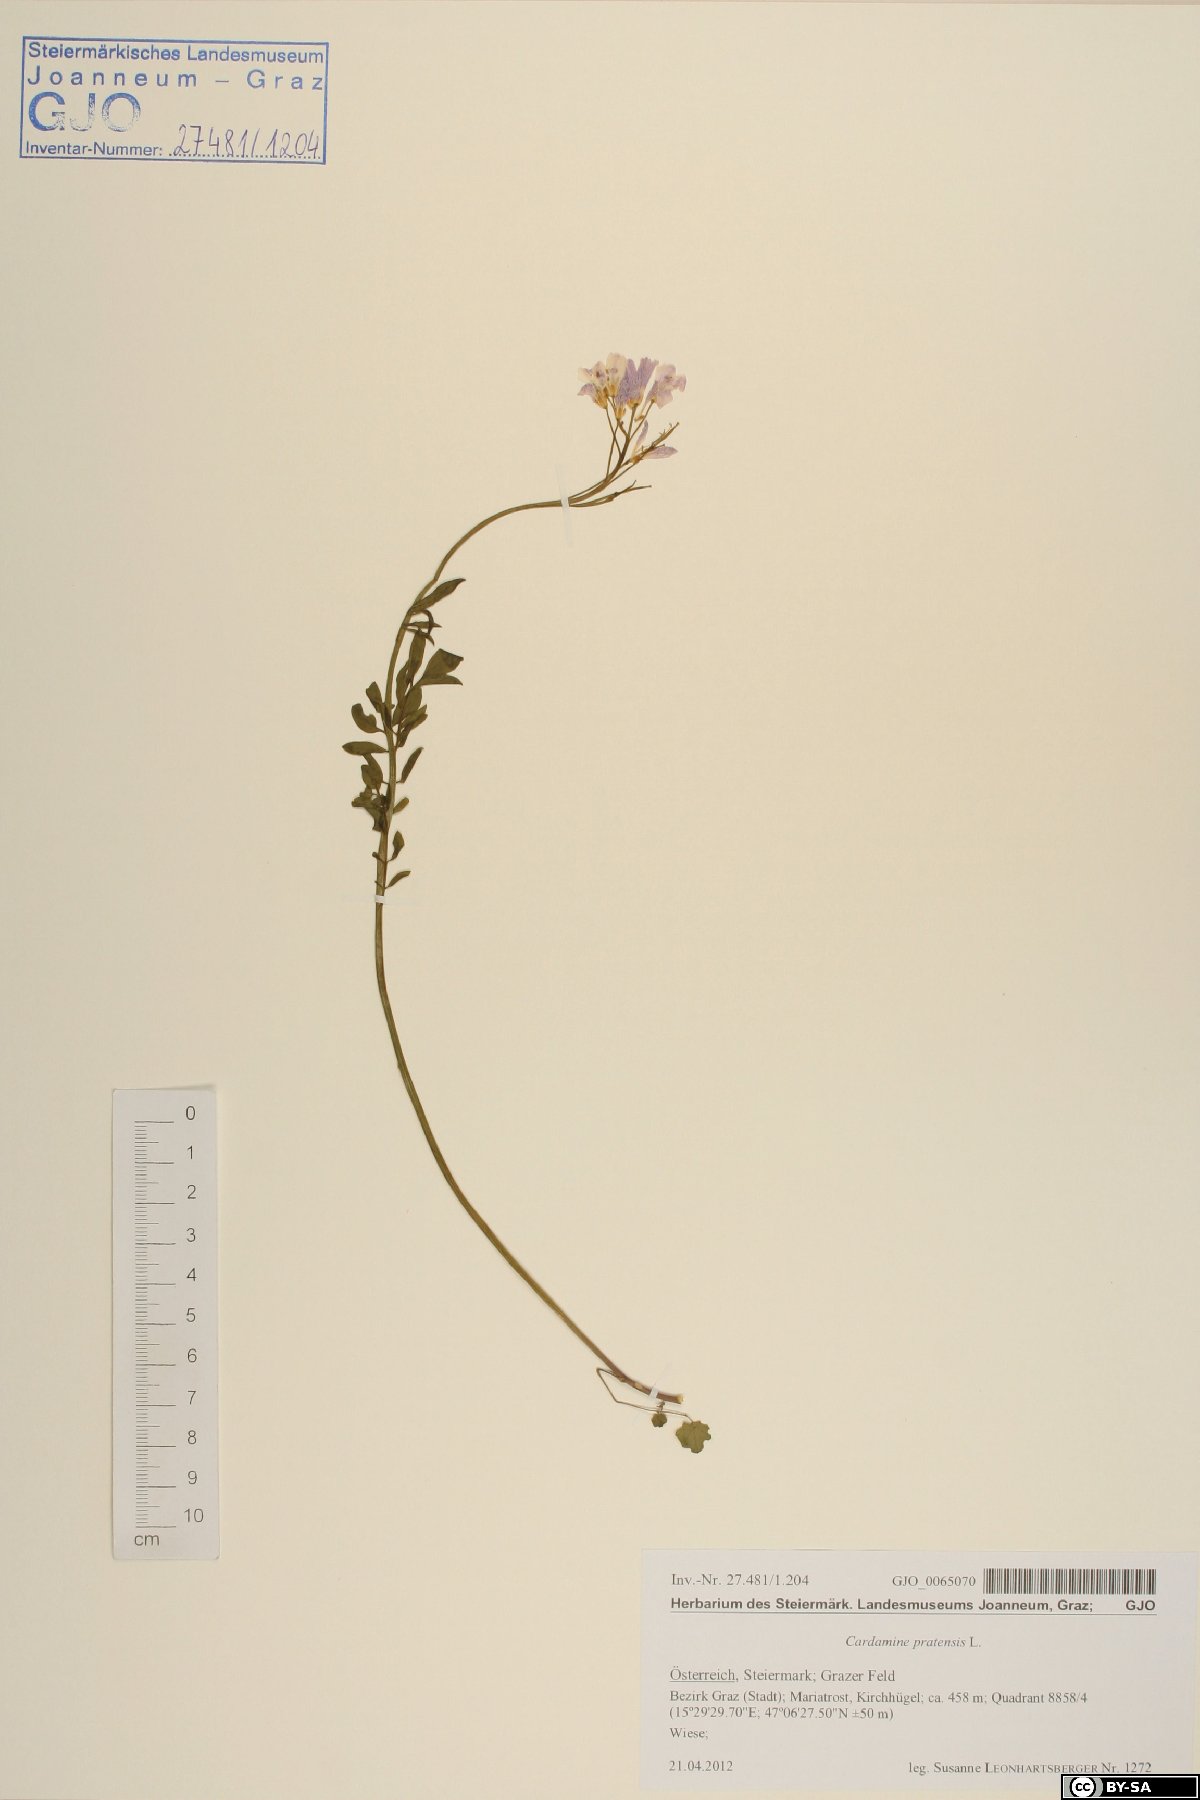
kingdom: Plantae
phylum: Tracheophyta
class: Magnoliopsida
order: Brassicales
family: Brassicaceae
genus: Cardamine
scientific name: Cardamine pratensis
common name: Cuckoo flower
